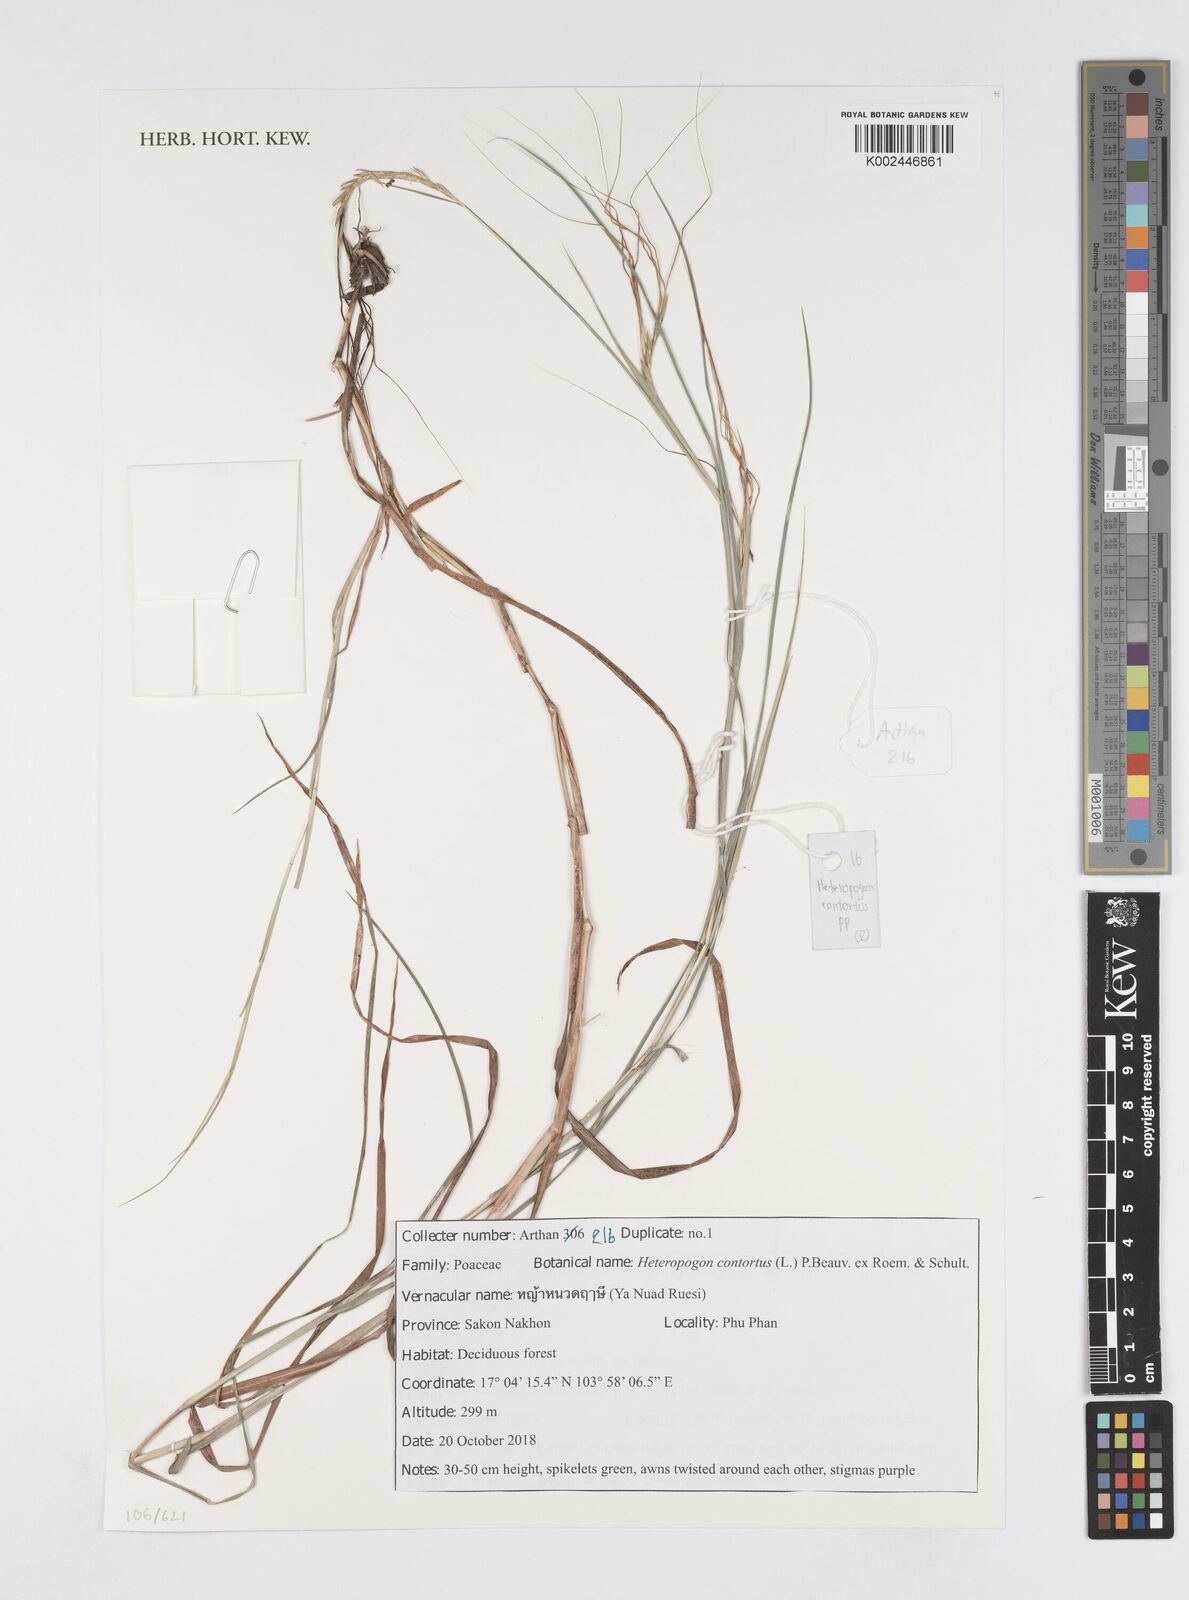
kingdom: Plantae
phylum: Tracheophyta
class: Liliopsida
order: Poales
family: Poaceae
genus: Heteropogon
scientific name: Heteropogon contortus
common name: Tanglehead
